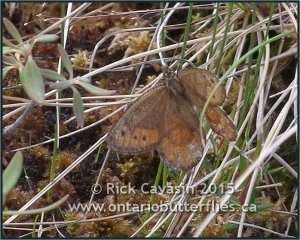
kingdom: Animalia
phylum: Arthropoda
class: Insecta
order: Lepidoptera
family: Nymphalidae
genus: Oeneis
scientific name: Oeneis chryxus
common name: Chryxus Arctic
